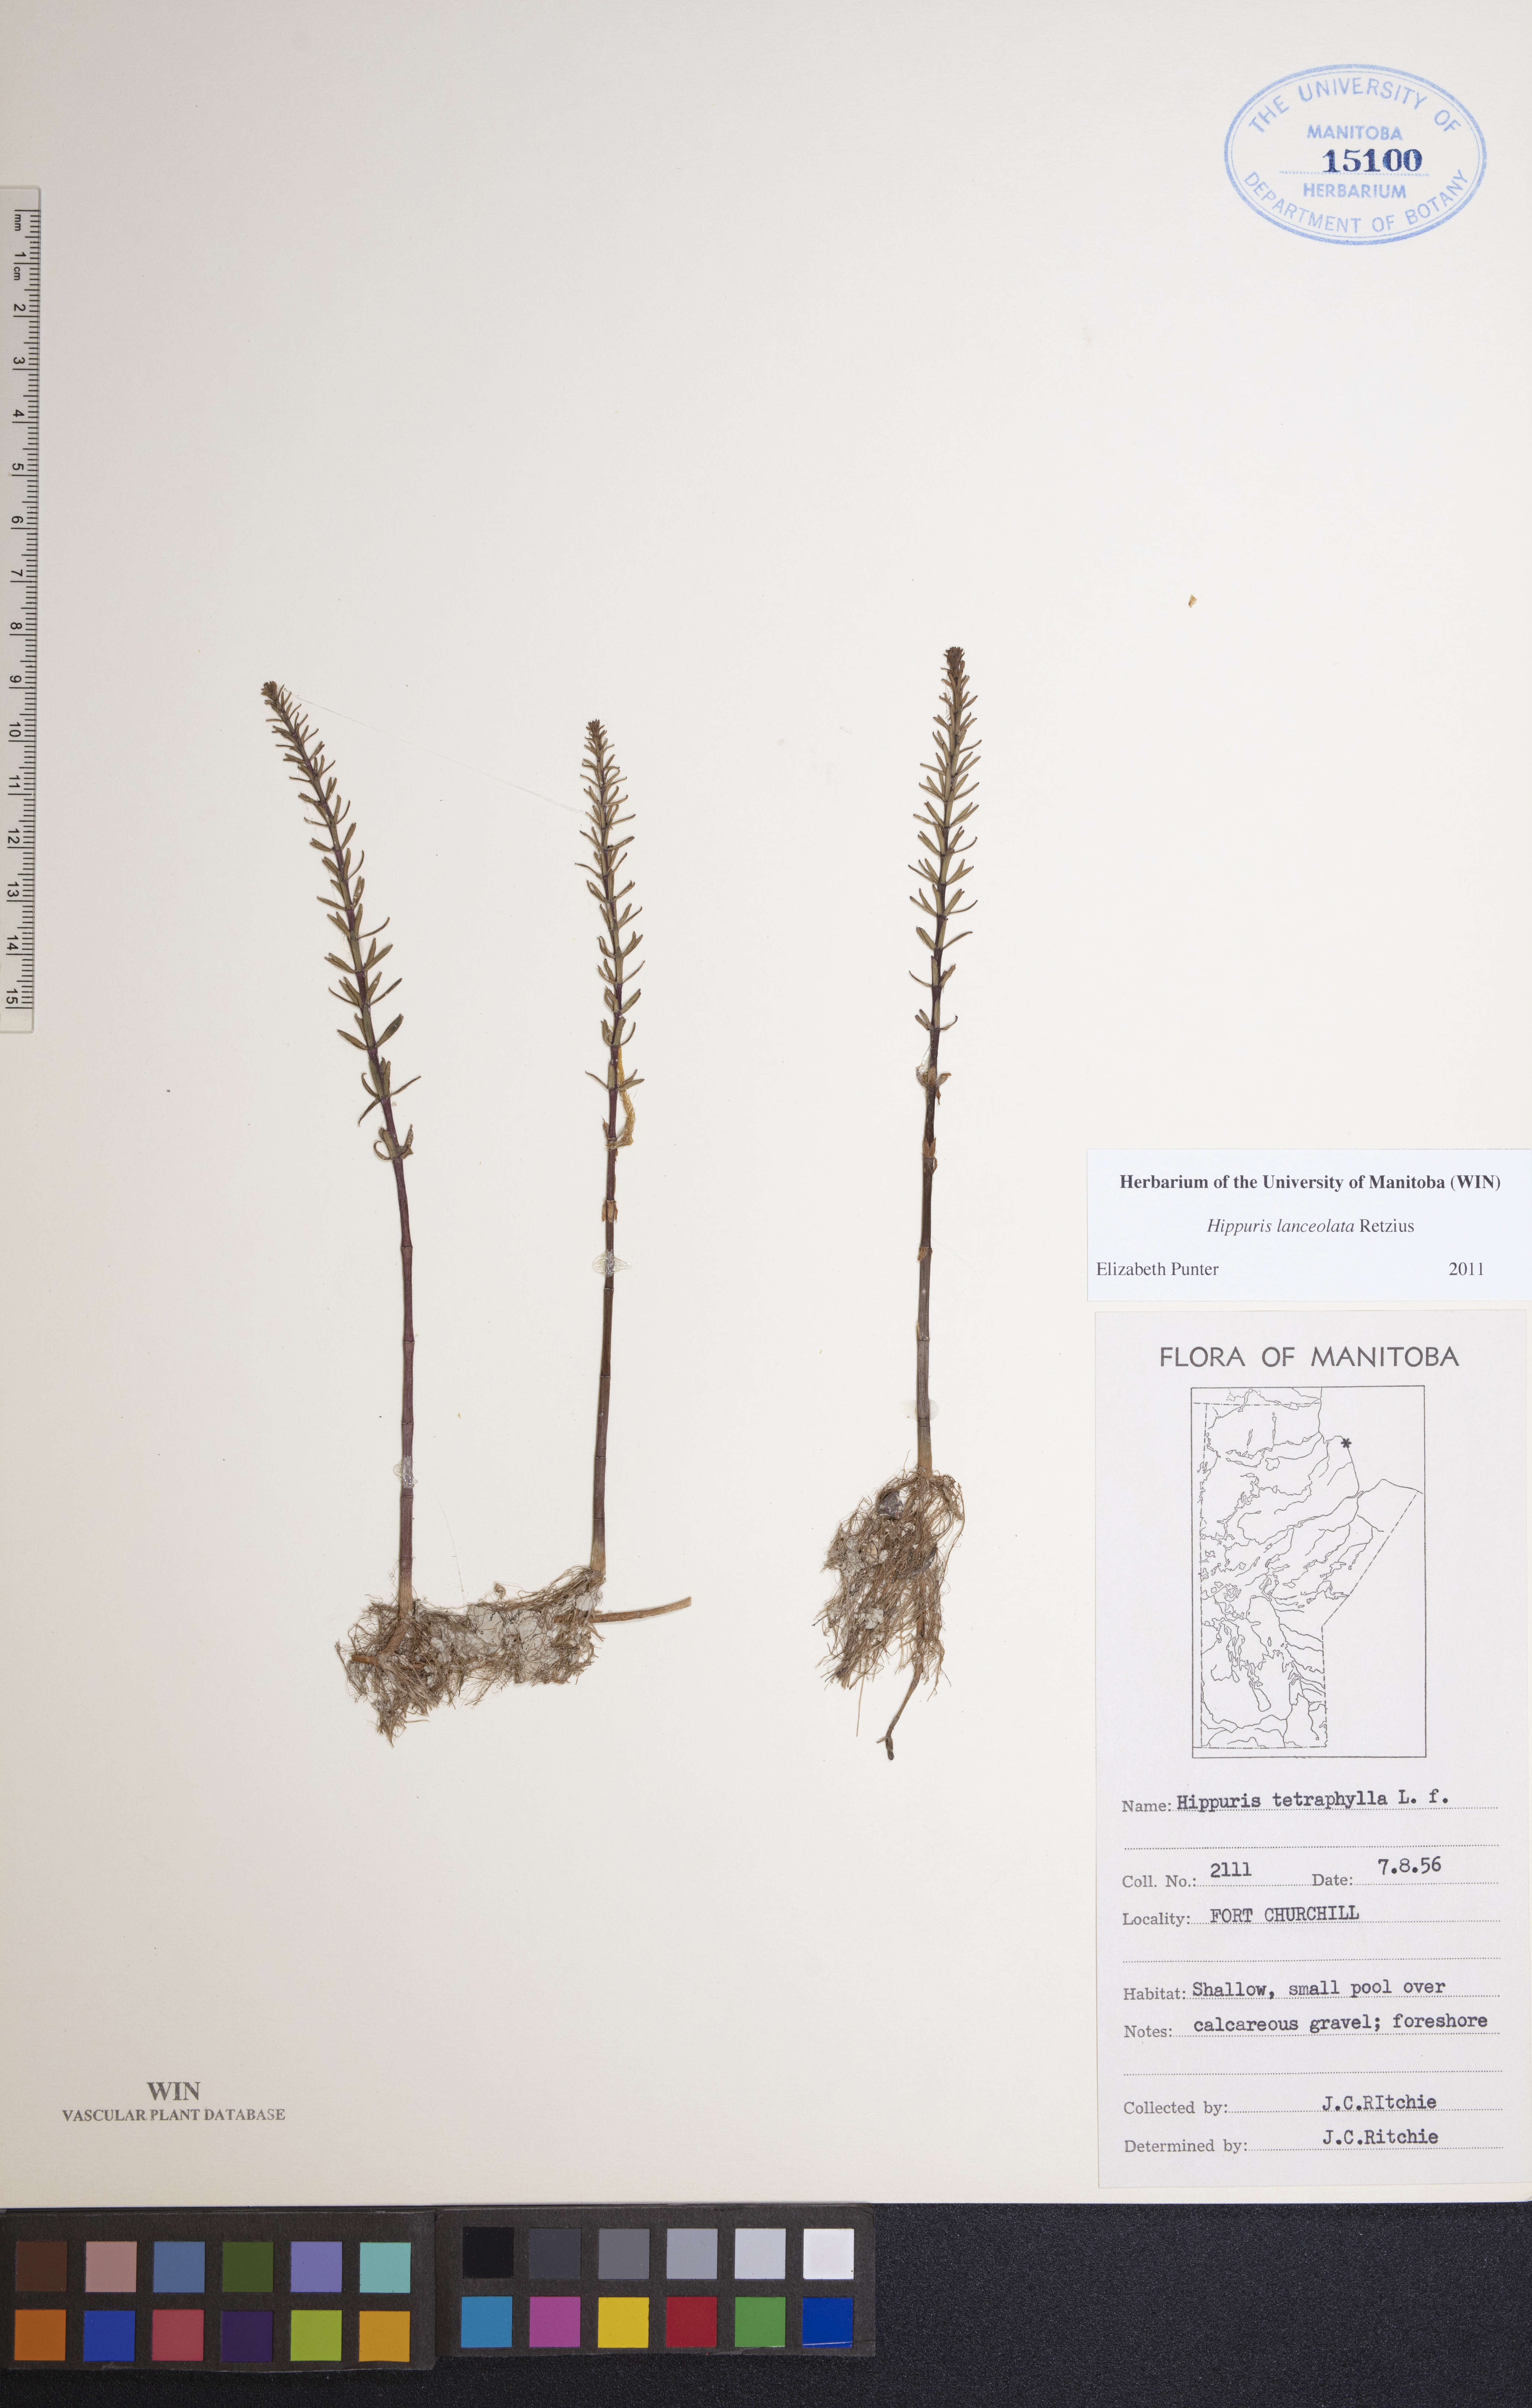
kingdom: Plantae
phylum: Tracheophyta
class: Magnoliopsida
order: Lamiales
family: Plantaginaceae
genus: Hippuris
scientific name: Hippuris lanceolata
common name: Lance-leaved mare's-tail
